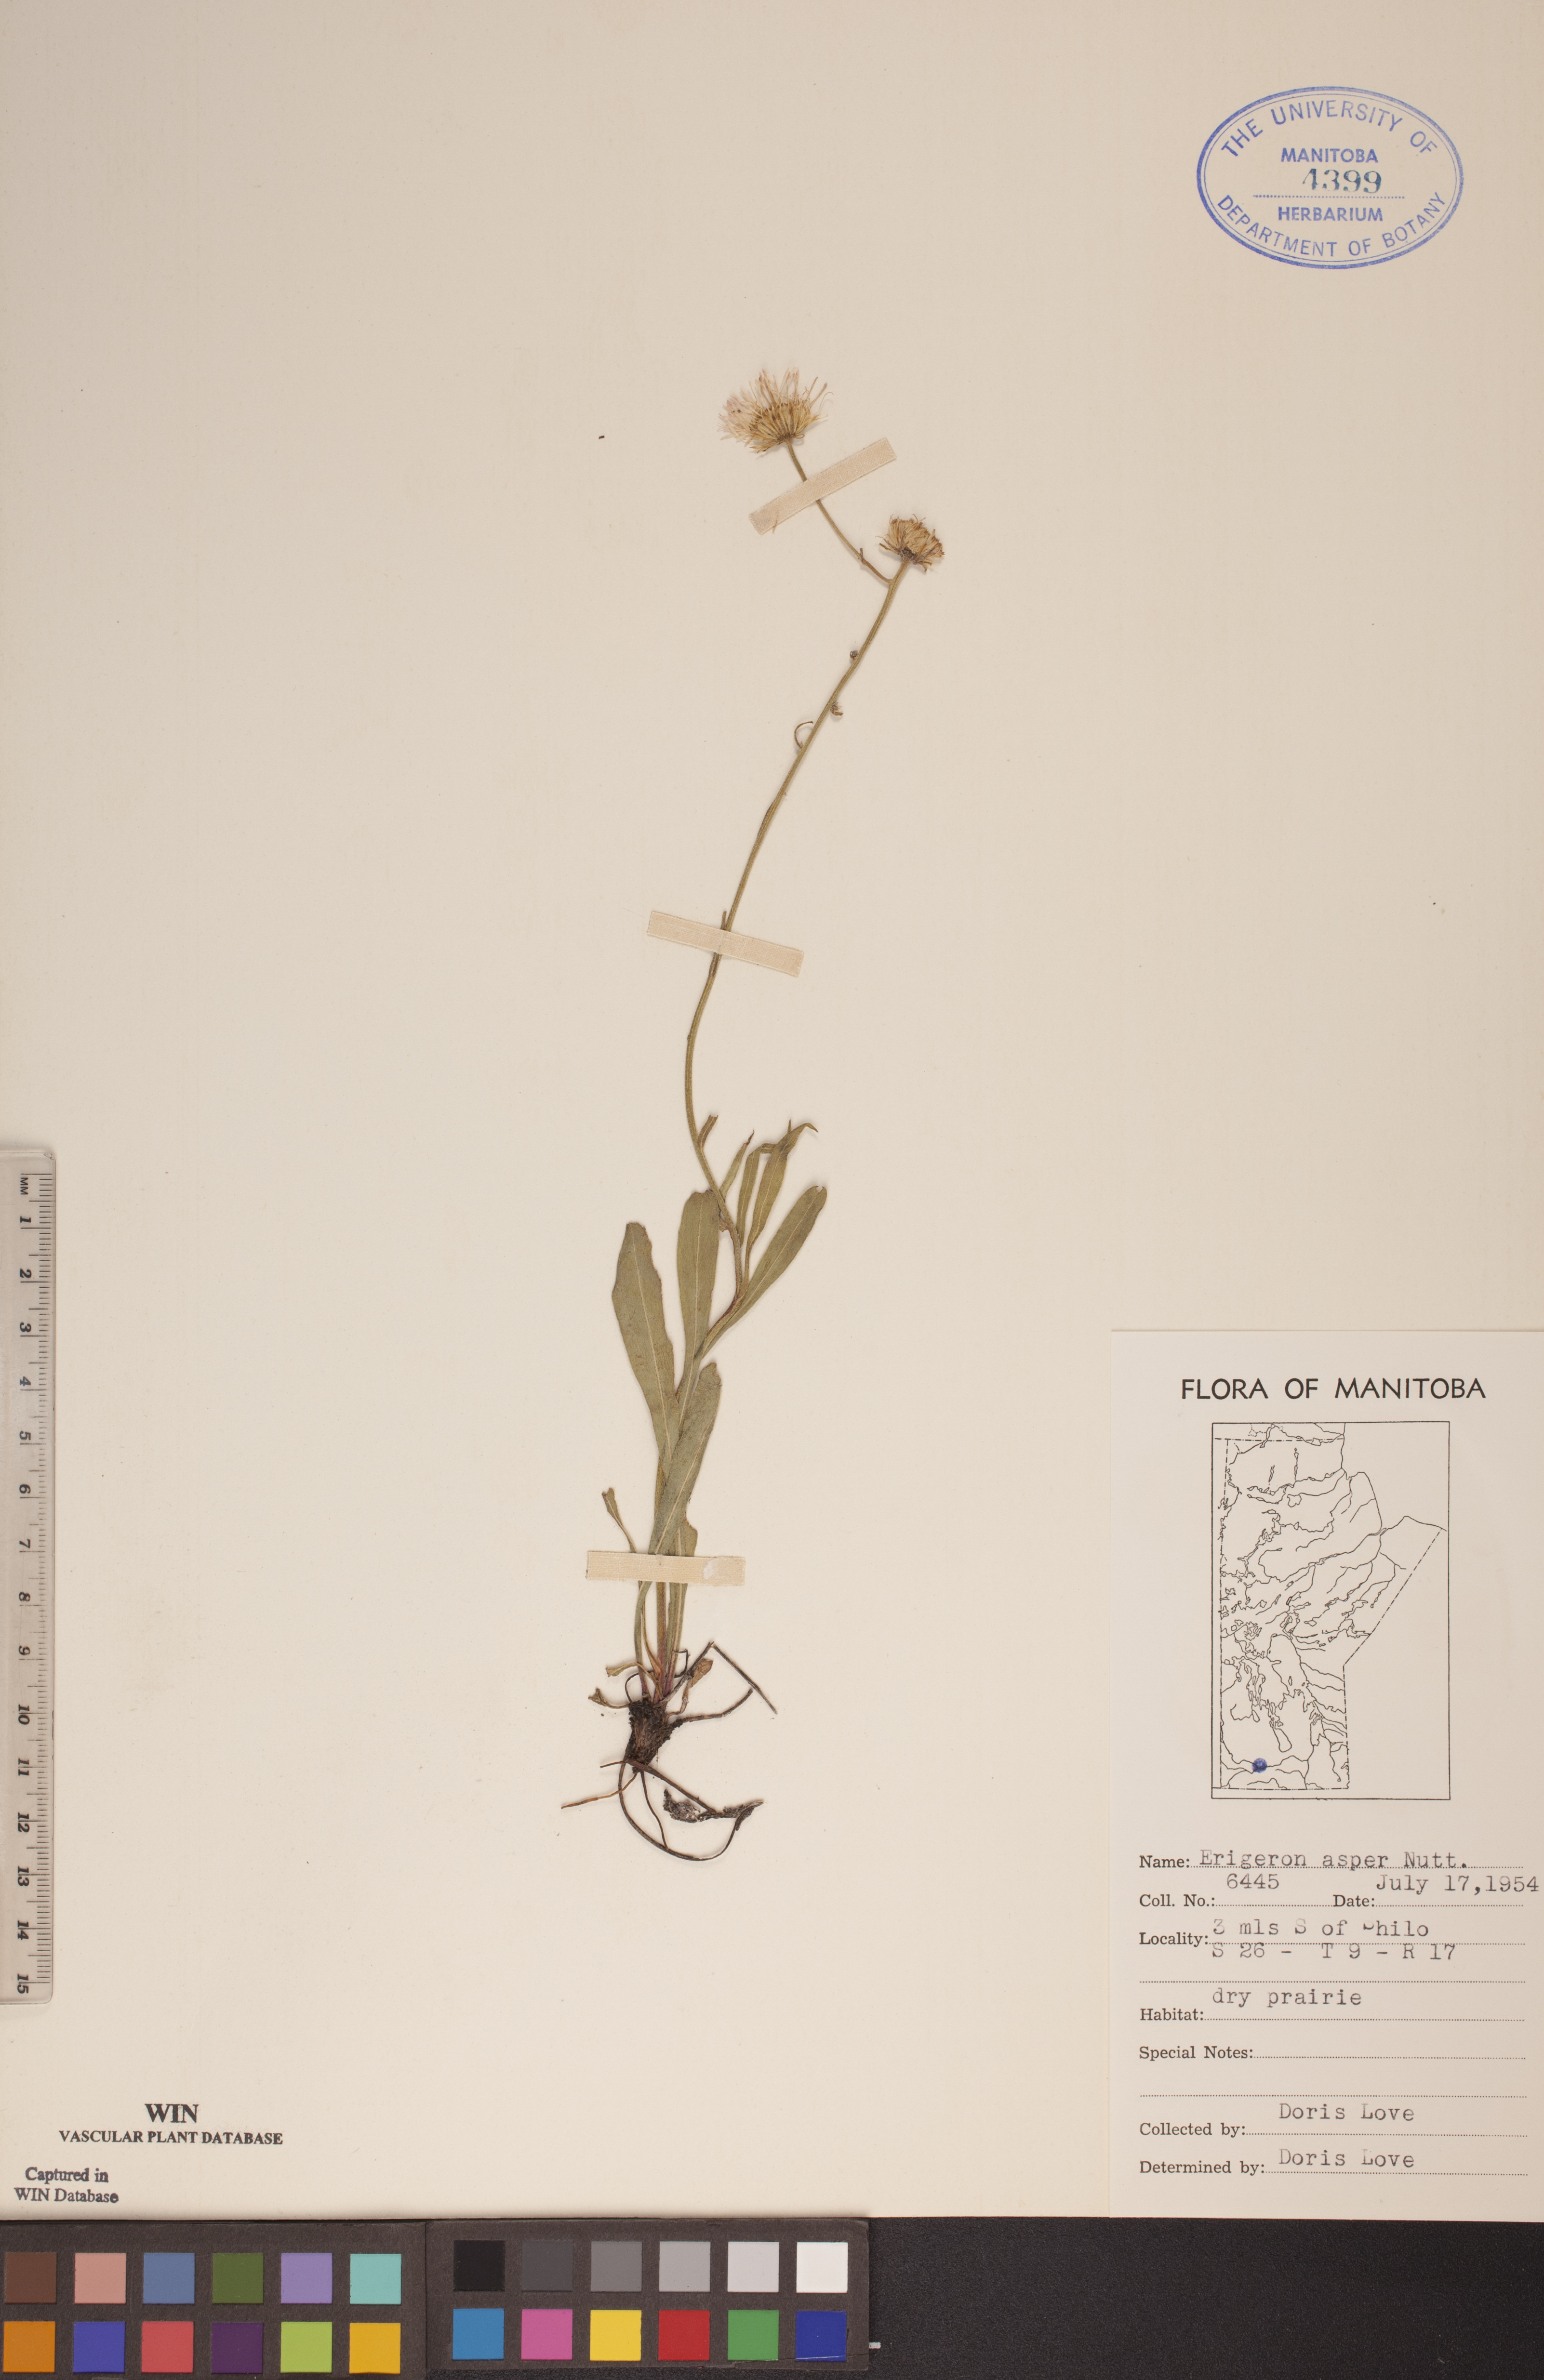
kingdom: Plantae
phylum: Tracheophyta
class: Magnoliopsida
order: Asterales
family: Asteraceae
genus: Erigeron
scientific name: Erigeron glabellus
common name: Smooth fleabane
